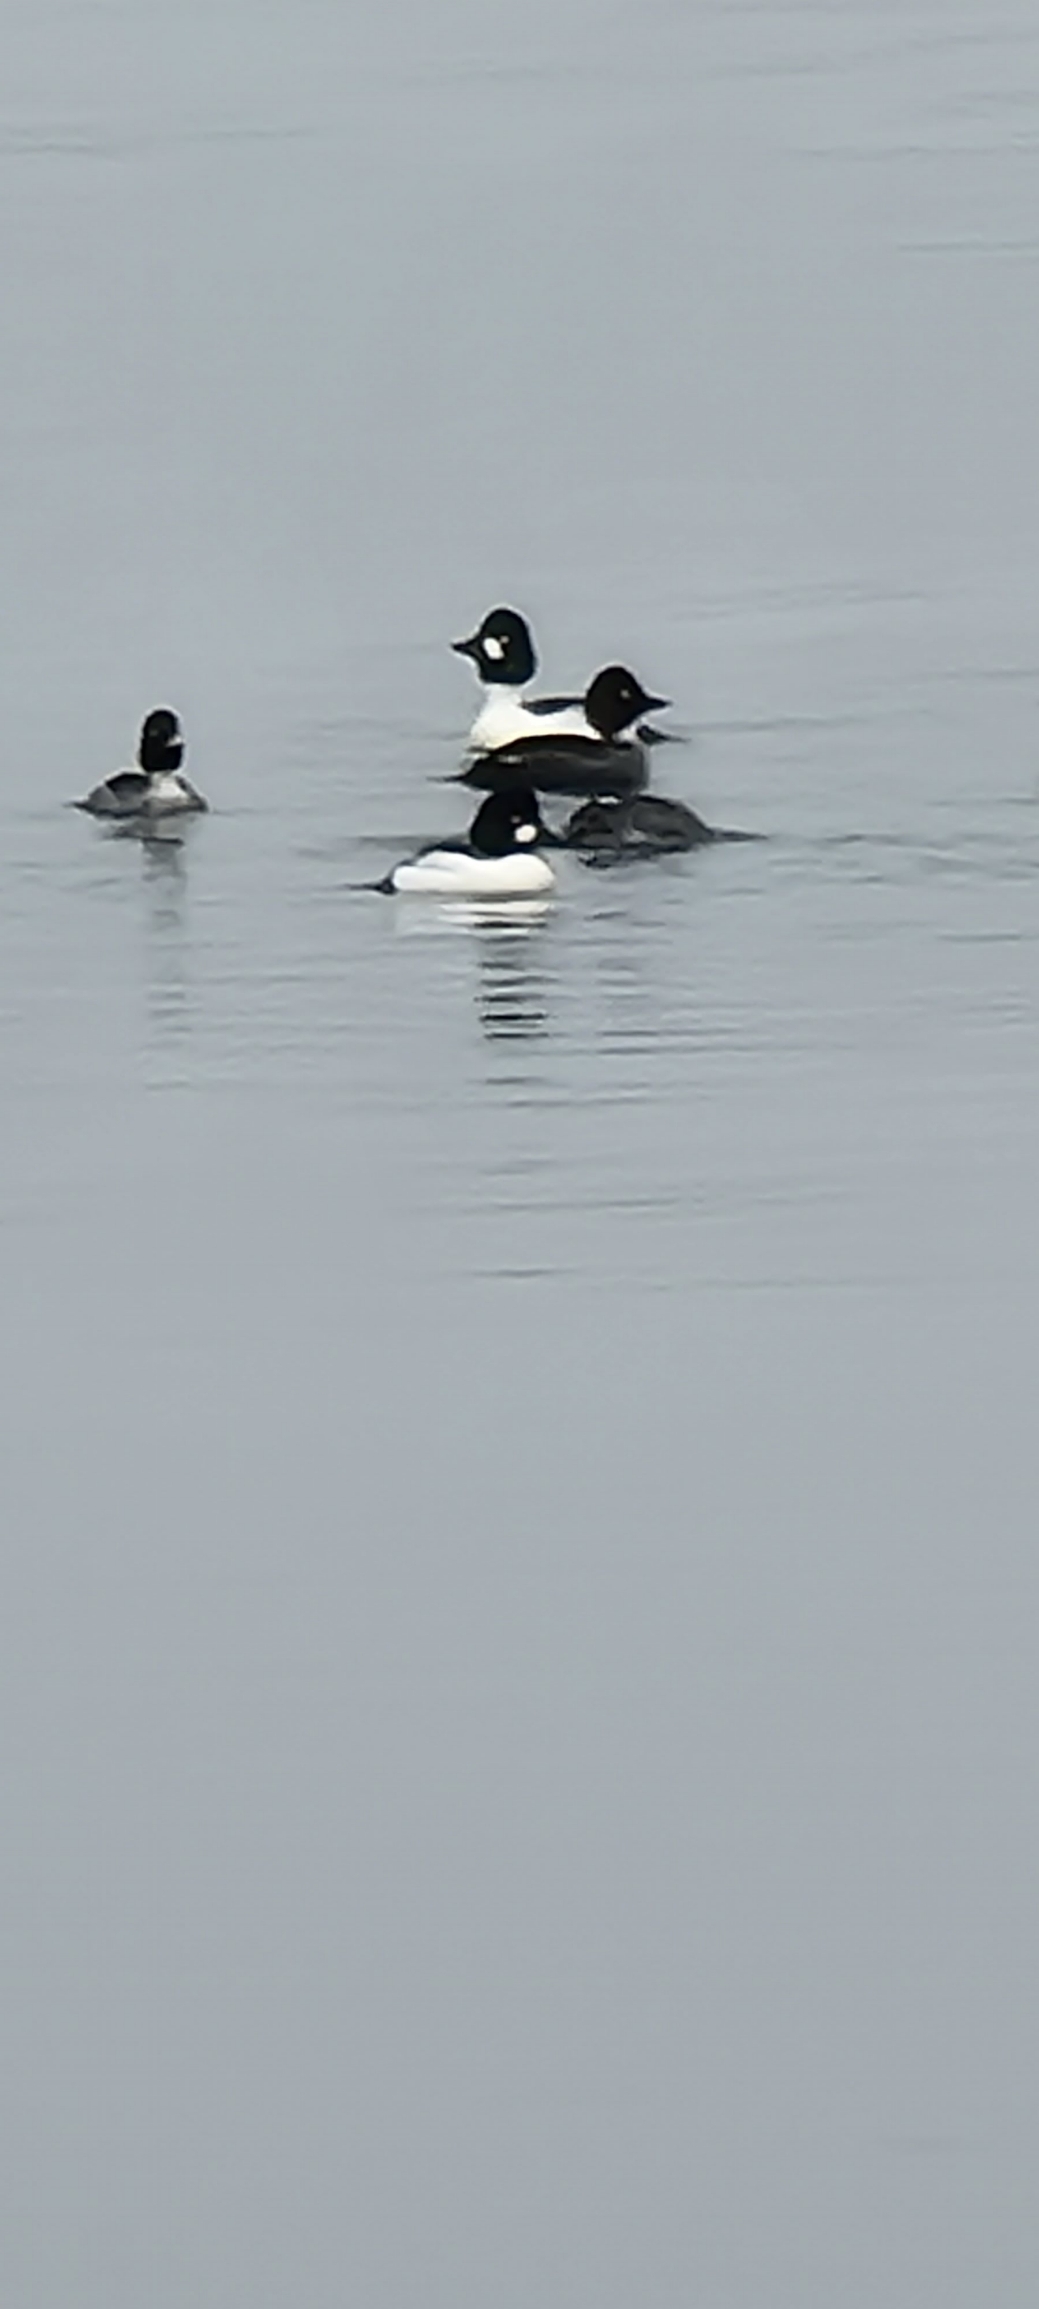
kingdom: Animalia
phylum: Chordata
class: Aves
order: Anseriformes
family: Anatidae
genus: Bucephala
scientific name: Bucephala clangula
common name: Hvinand
